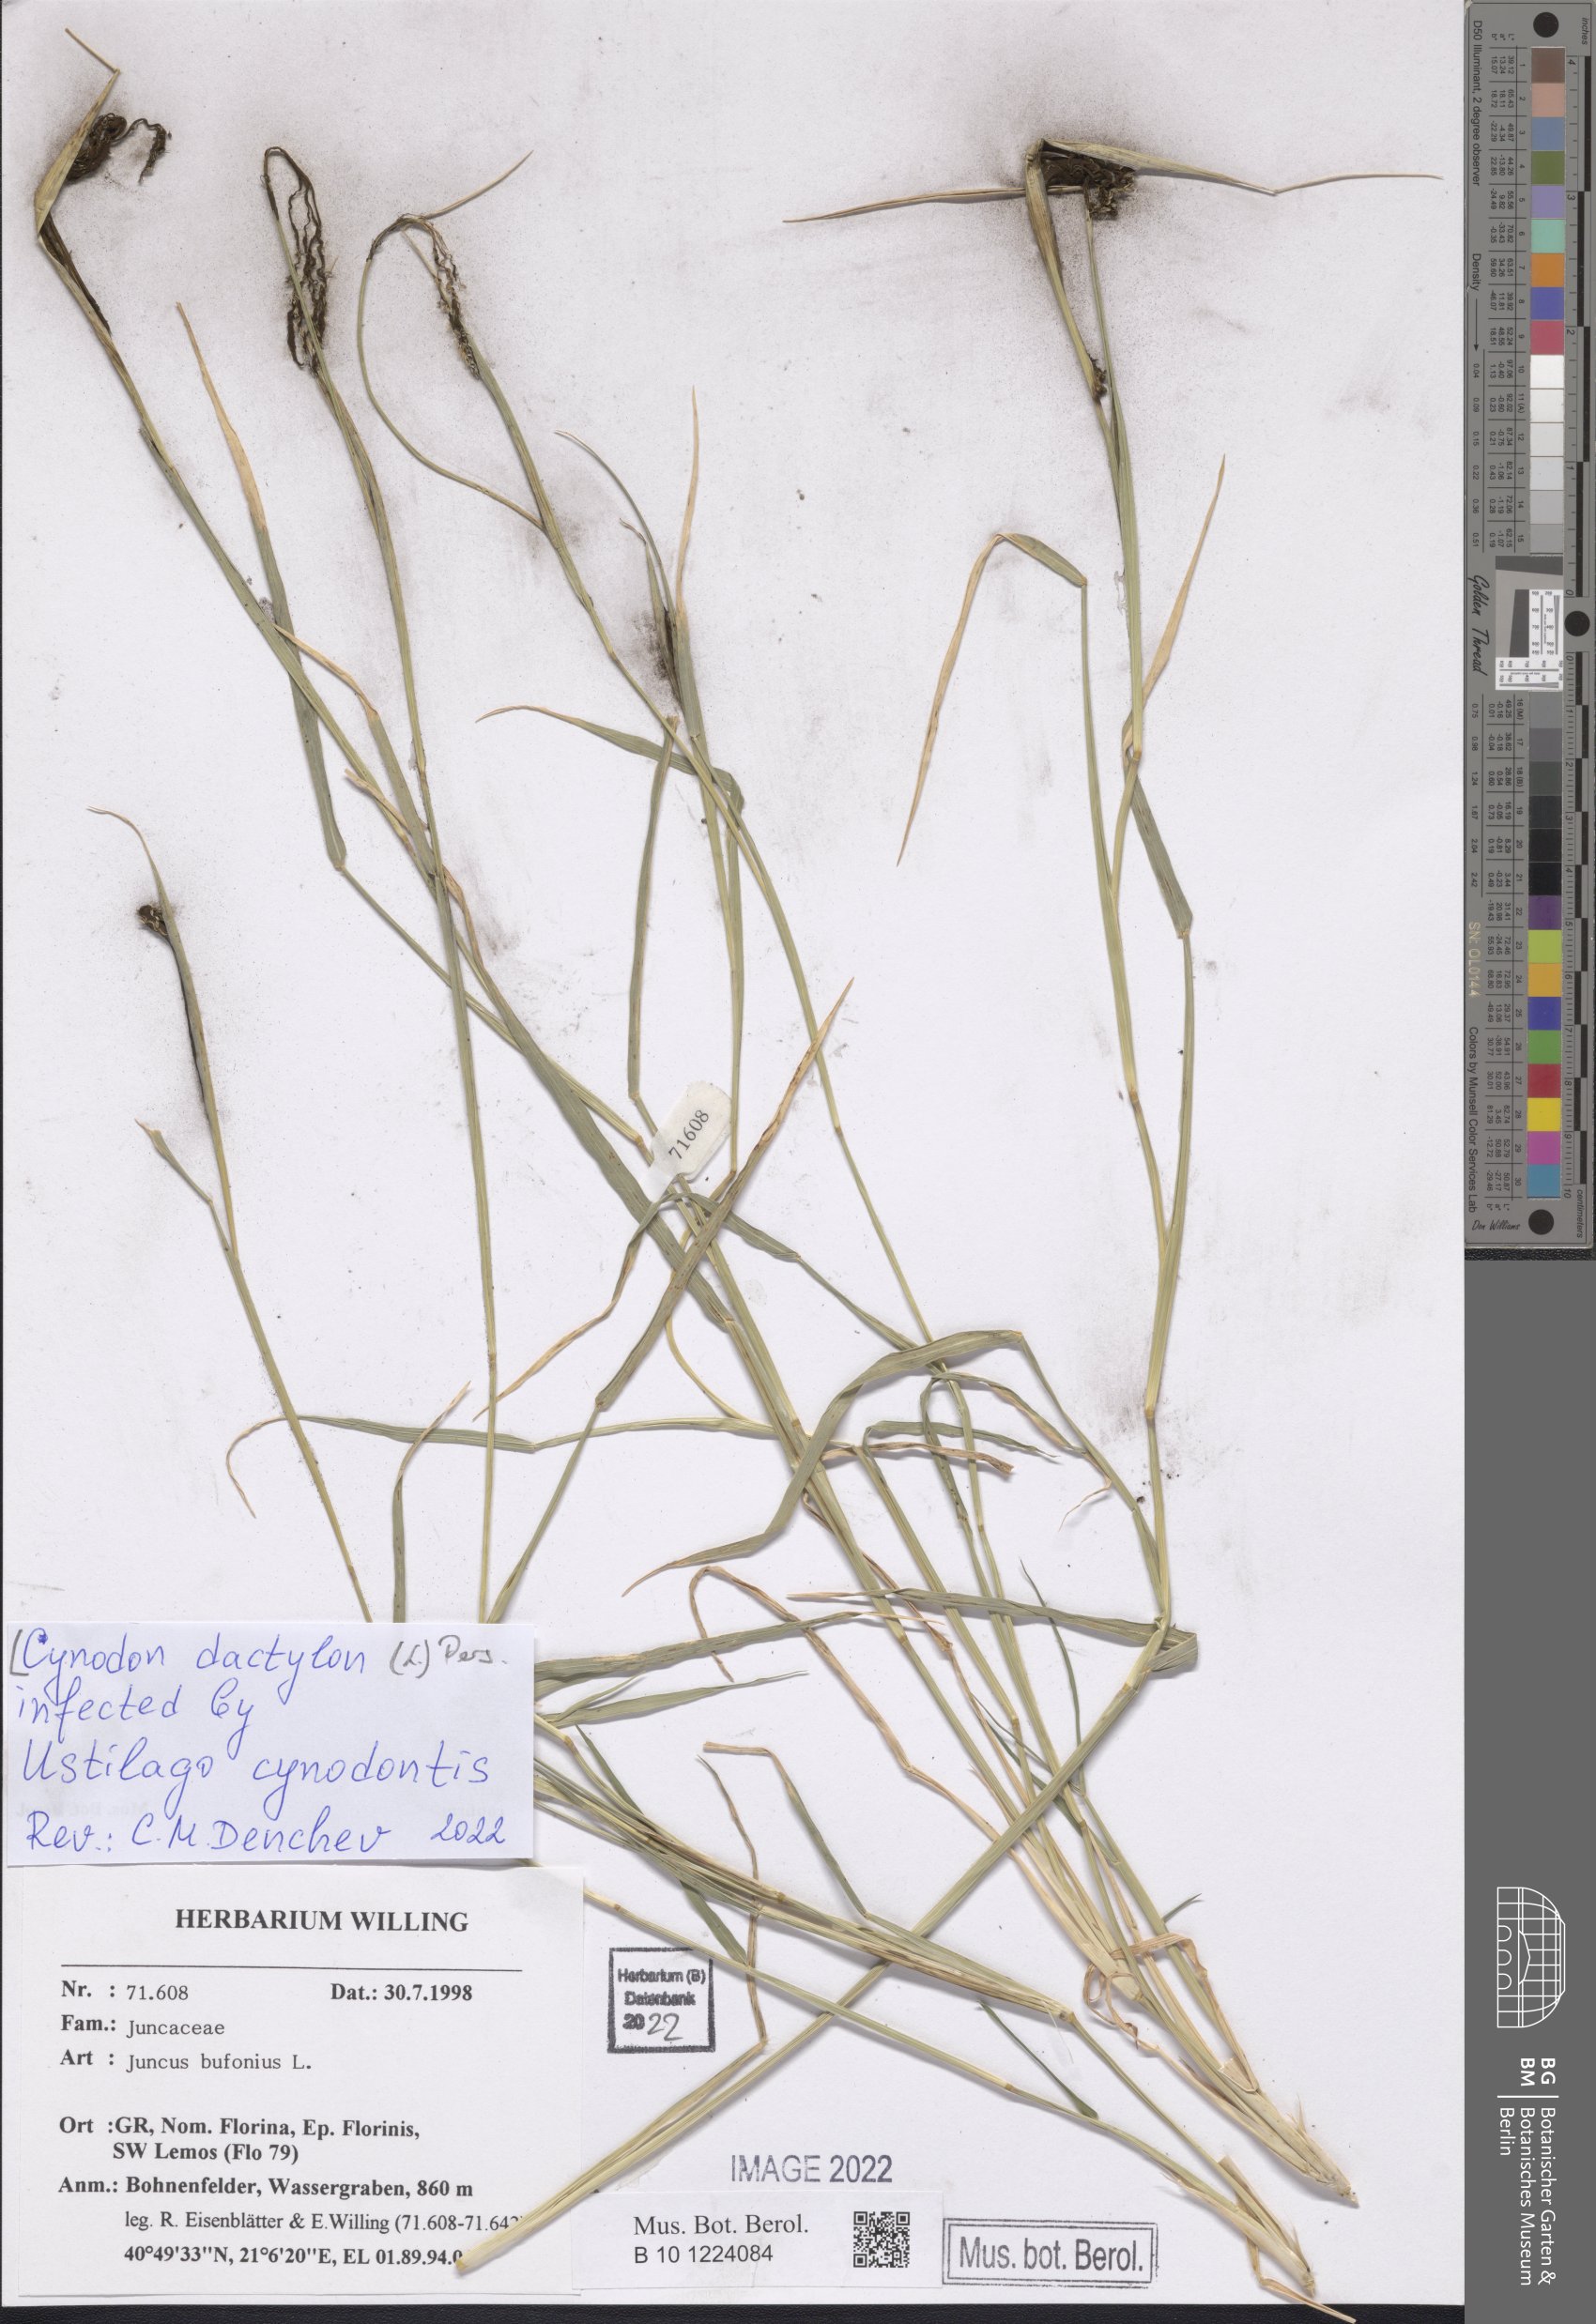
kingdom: Plantae
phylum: Tracheophyta
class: Liliopsida
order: Poales
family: Poaceae
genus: Cynodon
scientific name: Cynodon dactylon
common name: Bermuda grass
